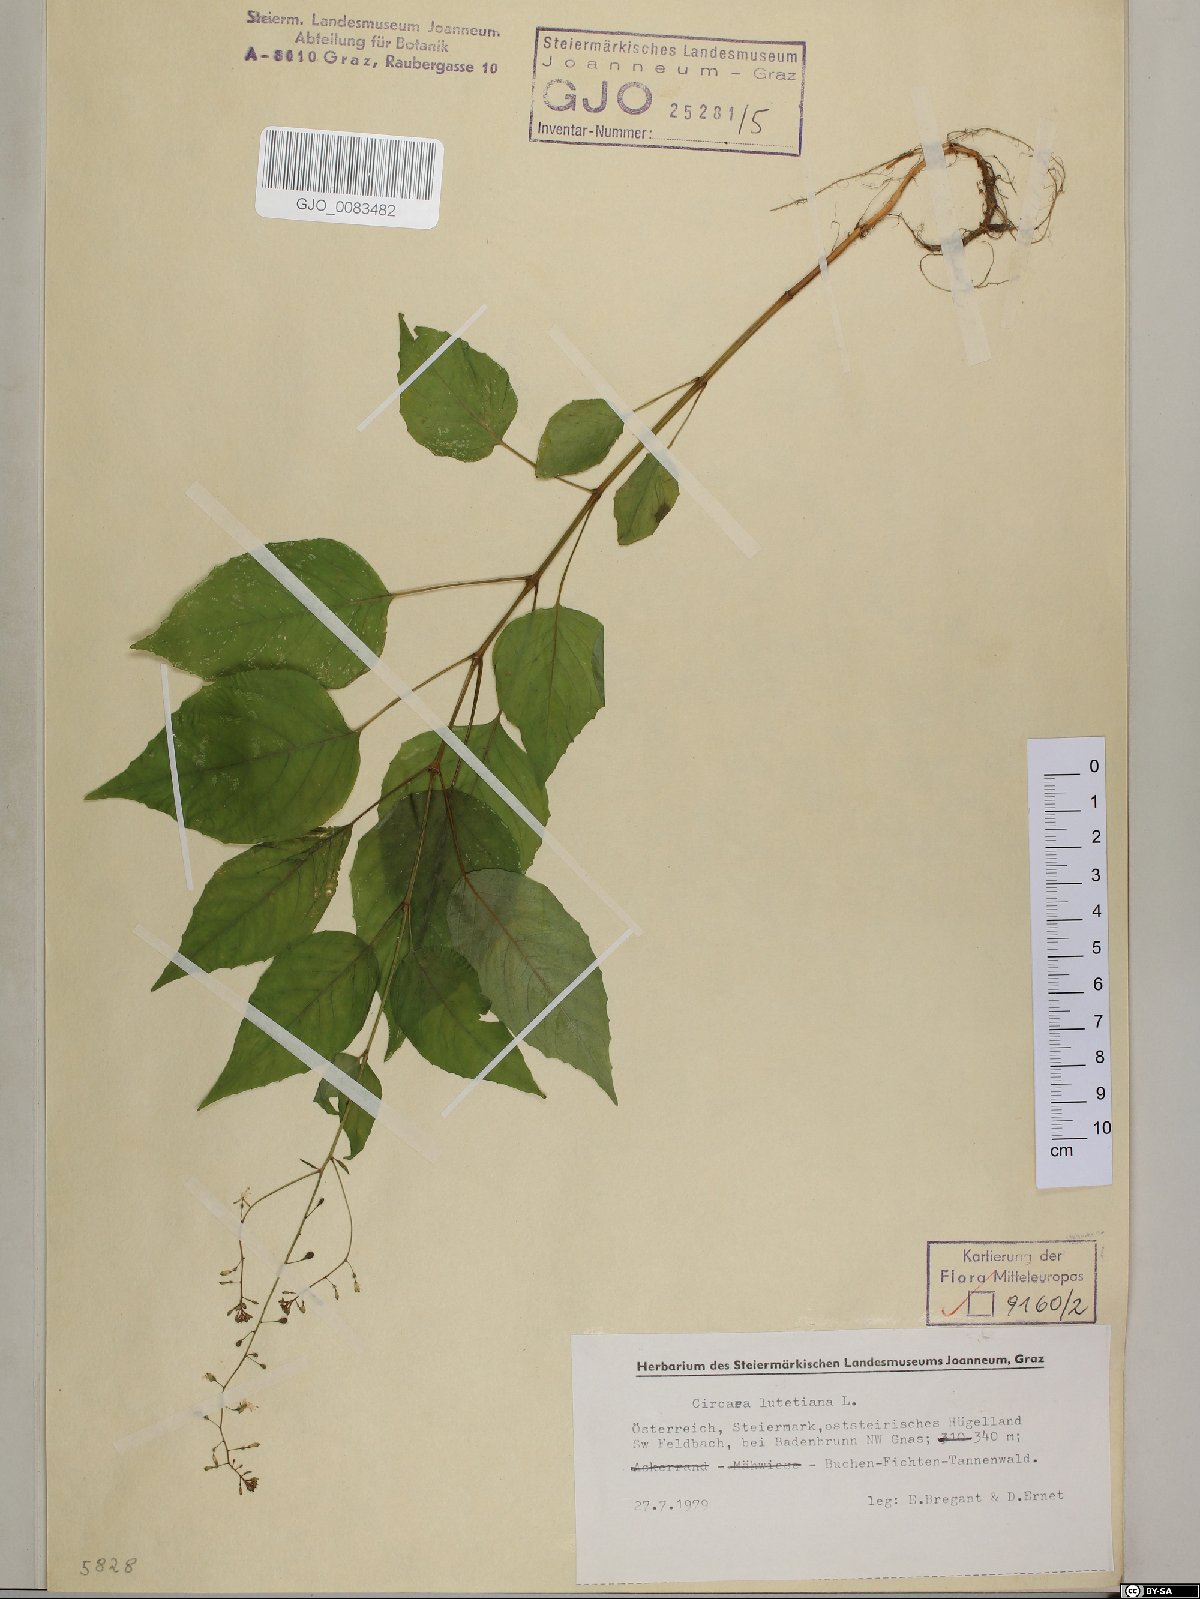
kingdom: Plantae
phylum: Tracheophyta
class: Magnoliopsida
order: Myrtales
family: Onagraceae
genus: Circaea
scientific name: Circaea lutetiana
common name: Enchanter's-nightshade
